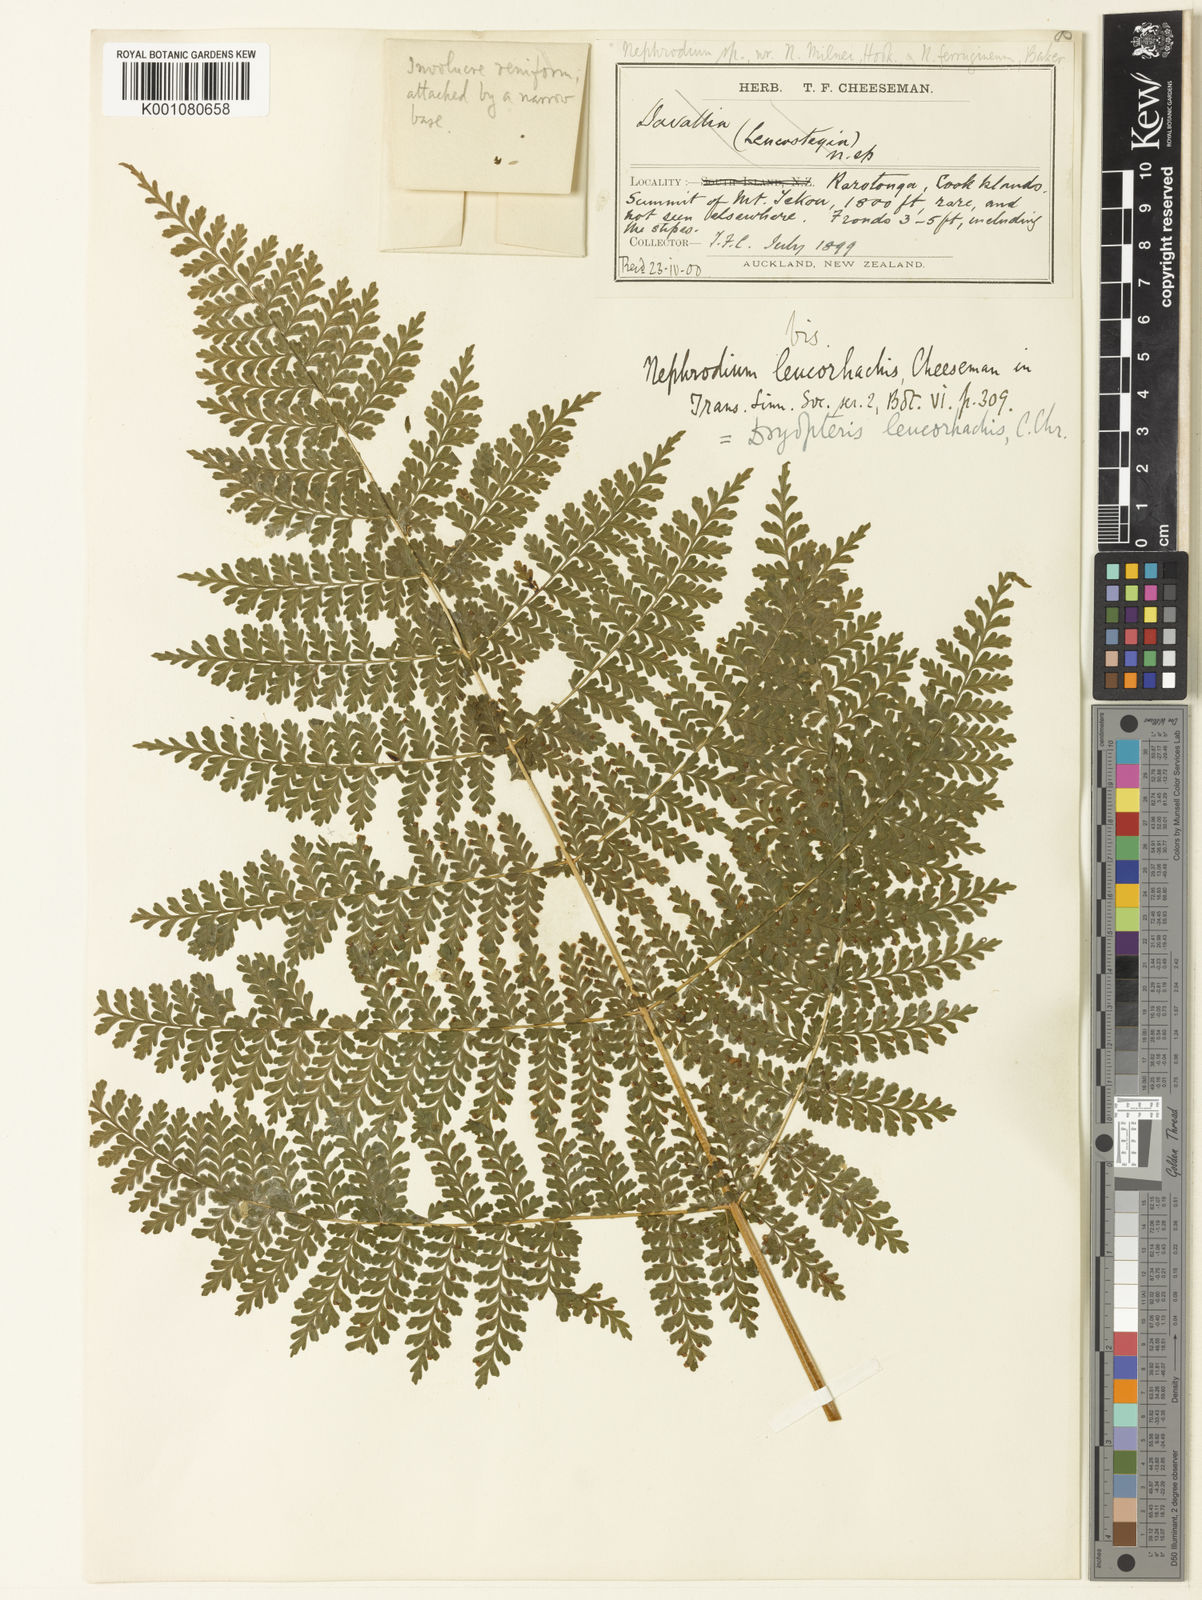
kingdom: Plantae
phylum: Tracheophyta
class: Polypodiopsida
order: Polypodiales
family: Dryopteridaceae
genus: Dryopteris
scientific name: Dryopteris leucorhachis
